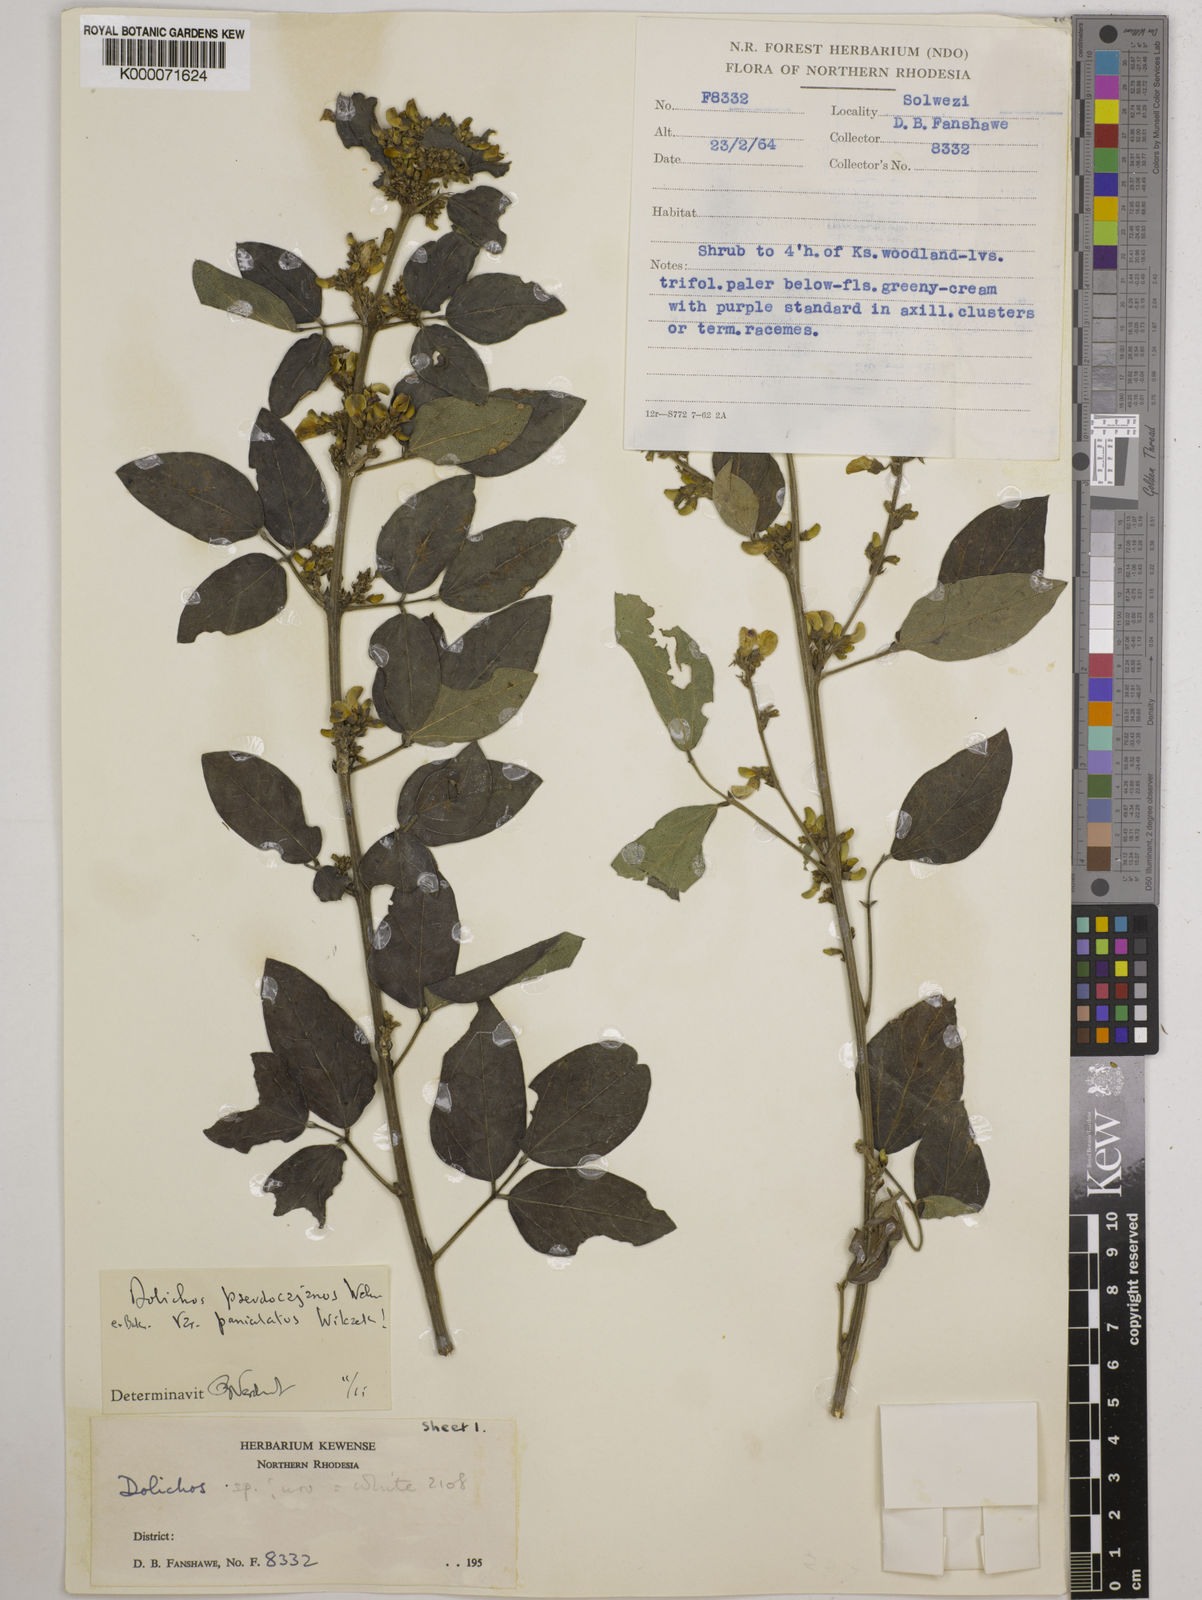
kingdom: Plantae
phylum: Tracheophyta
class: Magnoliopsida
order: Fabales
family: Fabaceae
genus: Dolichos
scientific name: Dolichos brevidentatus
